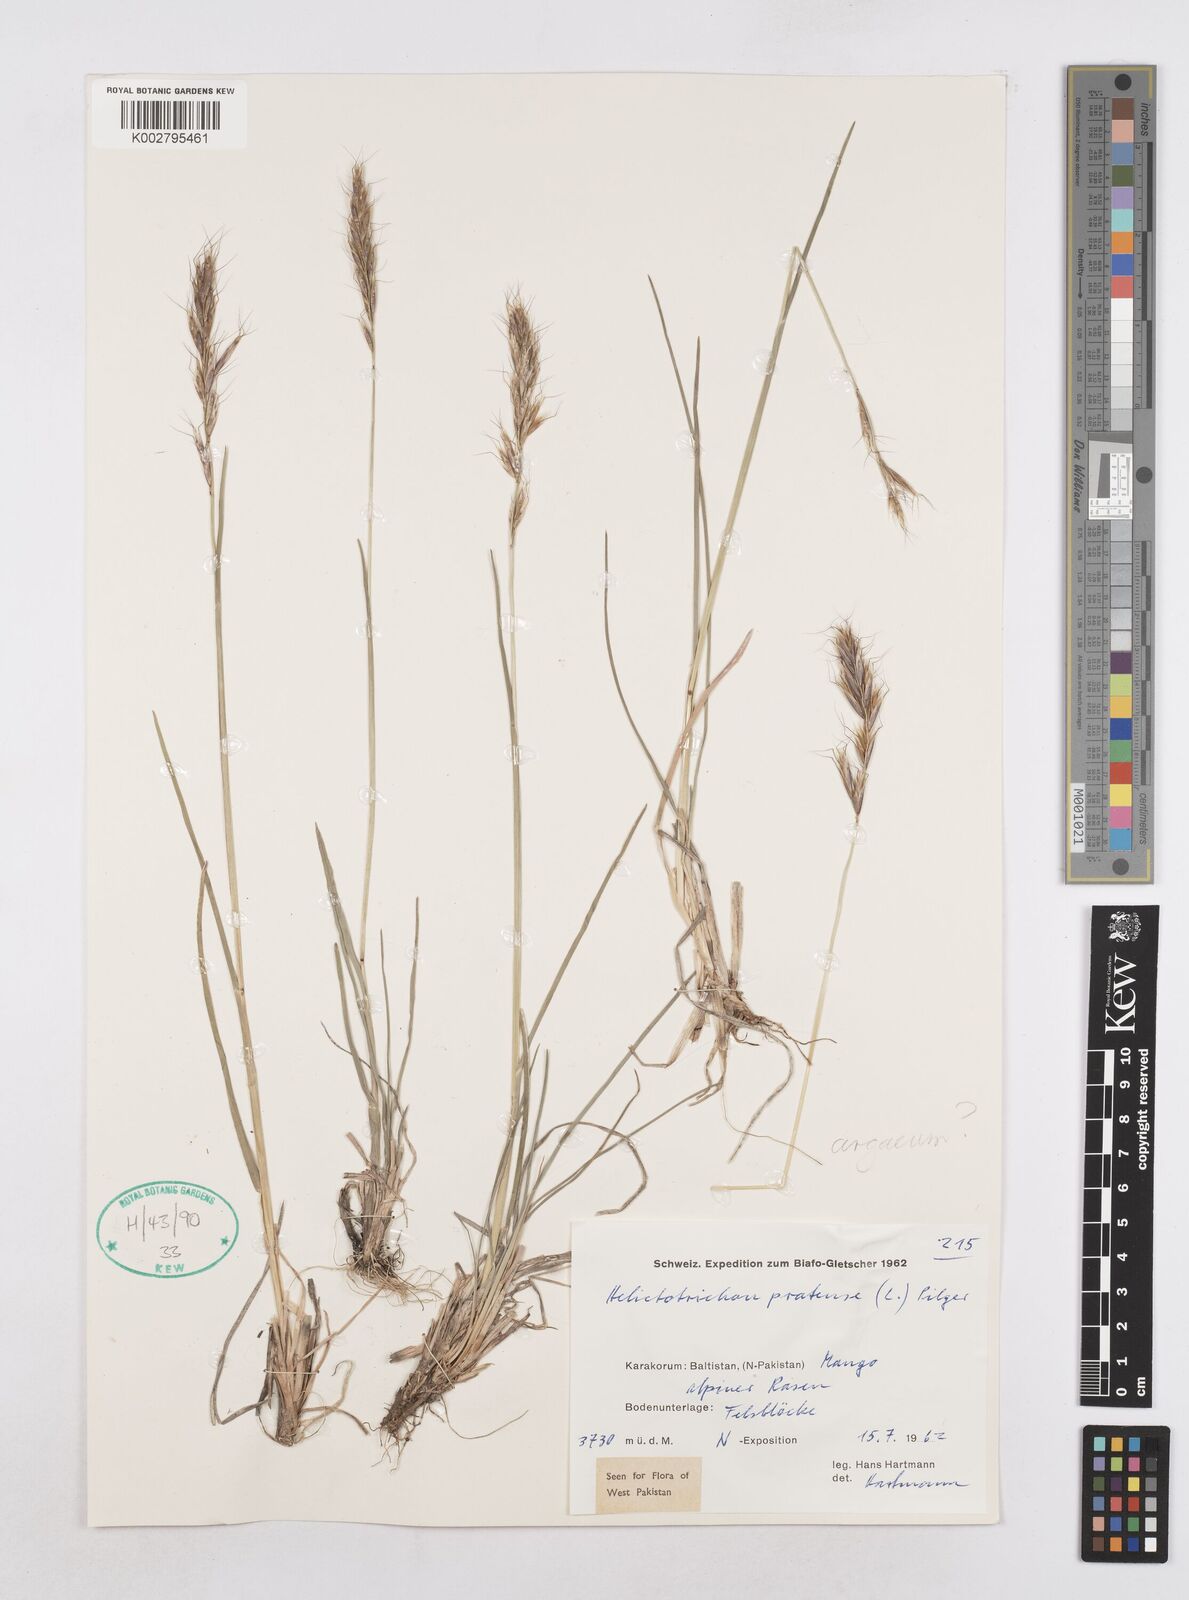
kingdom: Plantae
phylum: Tracheophyta
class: Liliopsida
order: Poales
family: Poaceae
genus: Helictochloa
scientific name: Helictochloa pratensis
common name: Meadow oat grass
